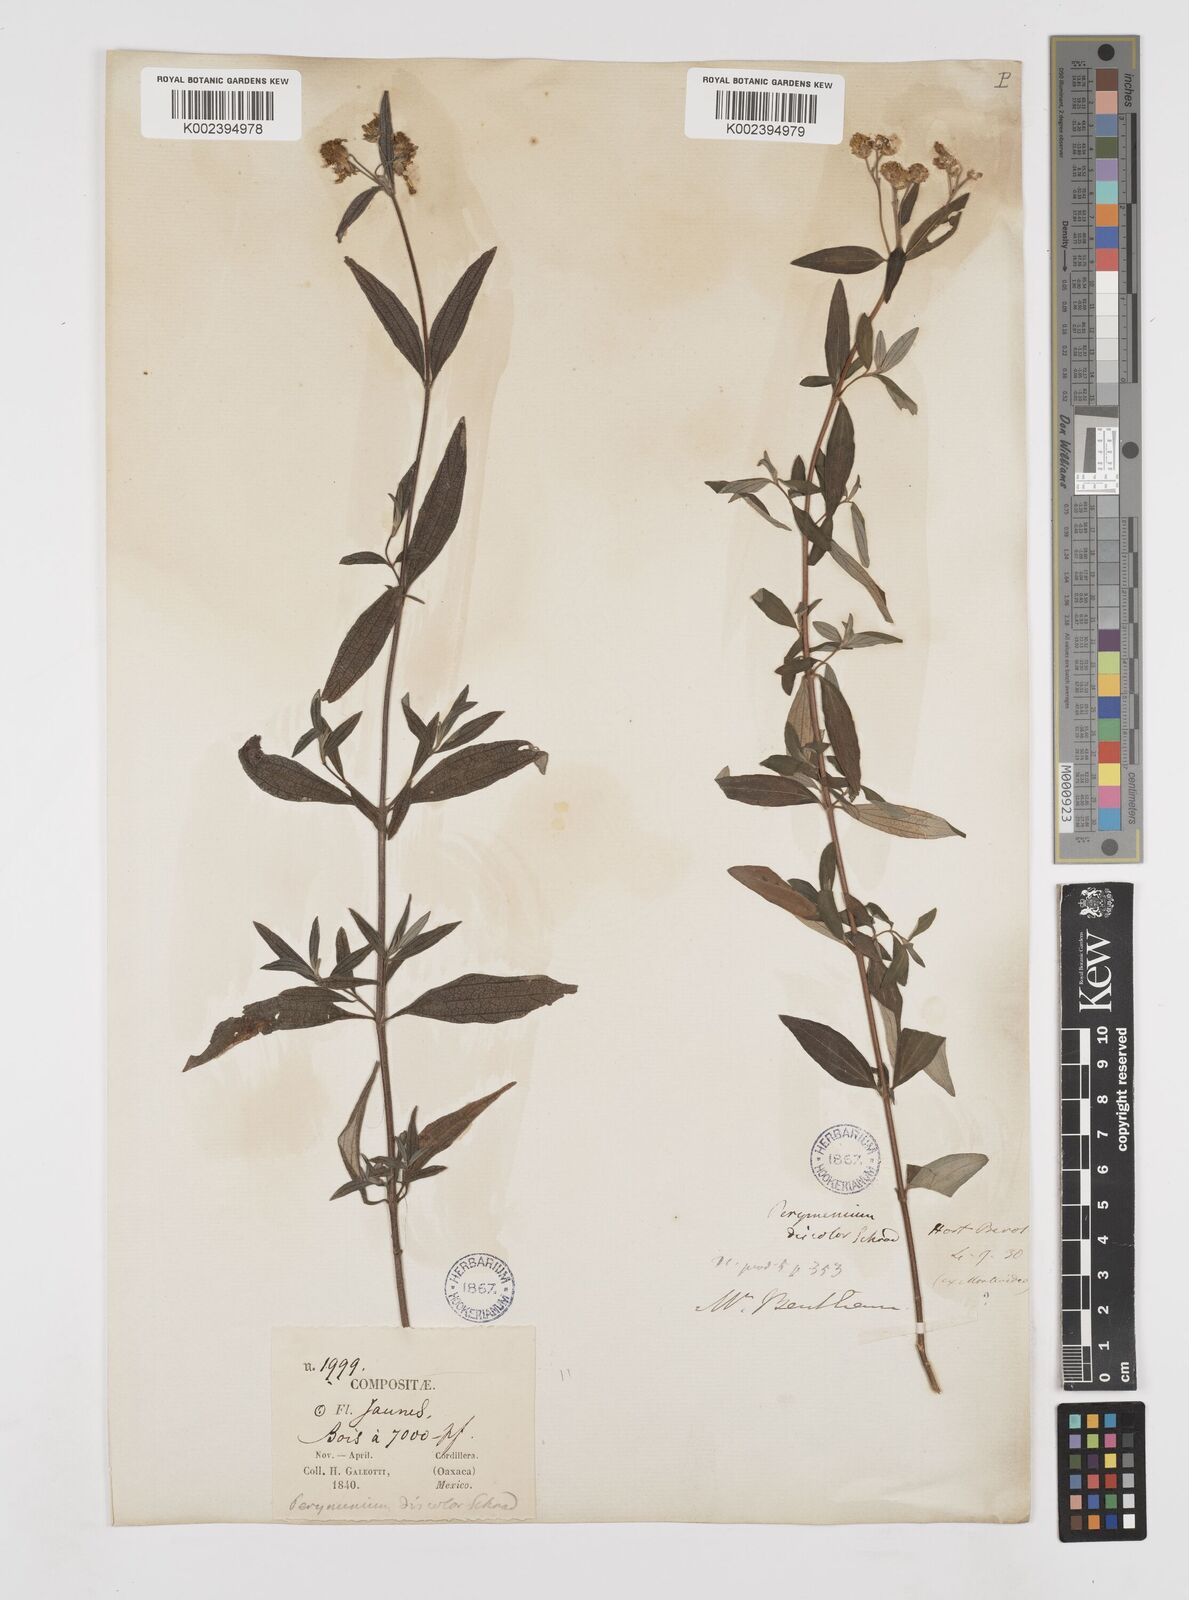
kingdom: Plantae
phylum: Tracheophyta
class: Magnoliopsida
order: Asterales
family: Asteraceae
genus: Perymenium
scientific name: Perymenium discolor
